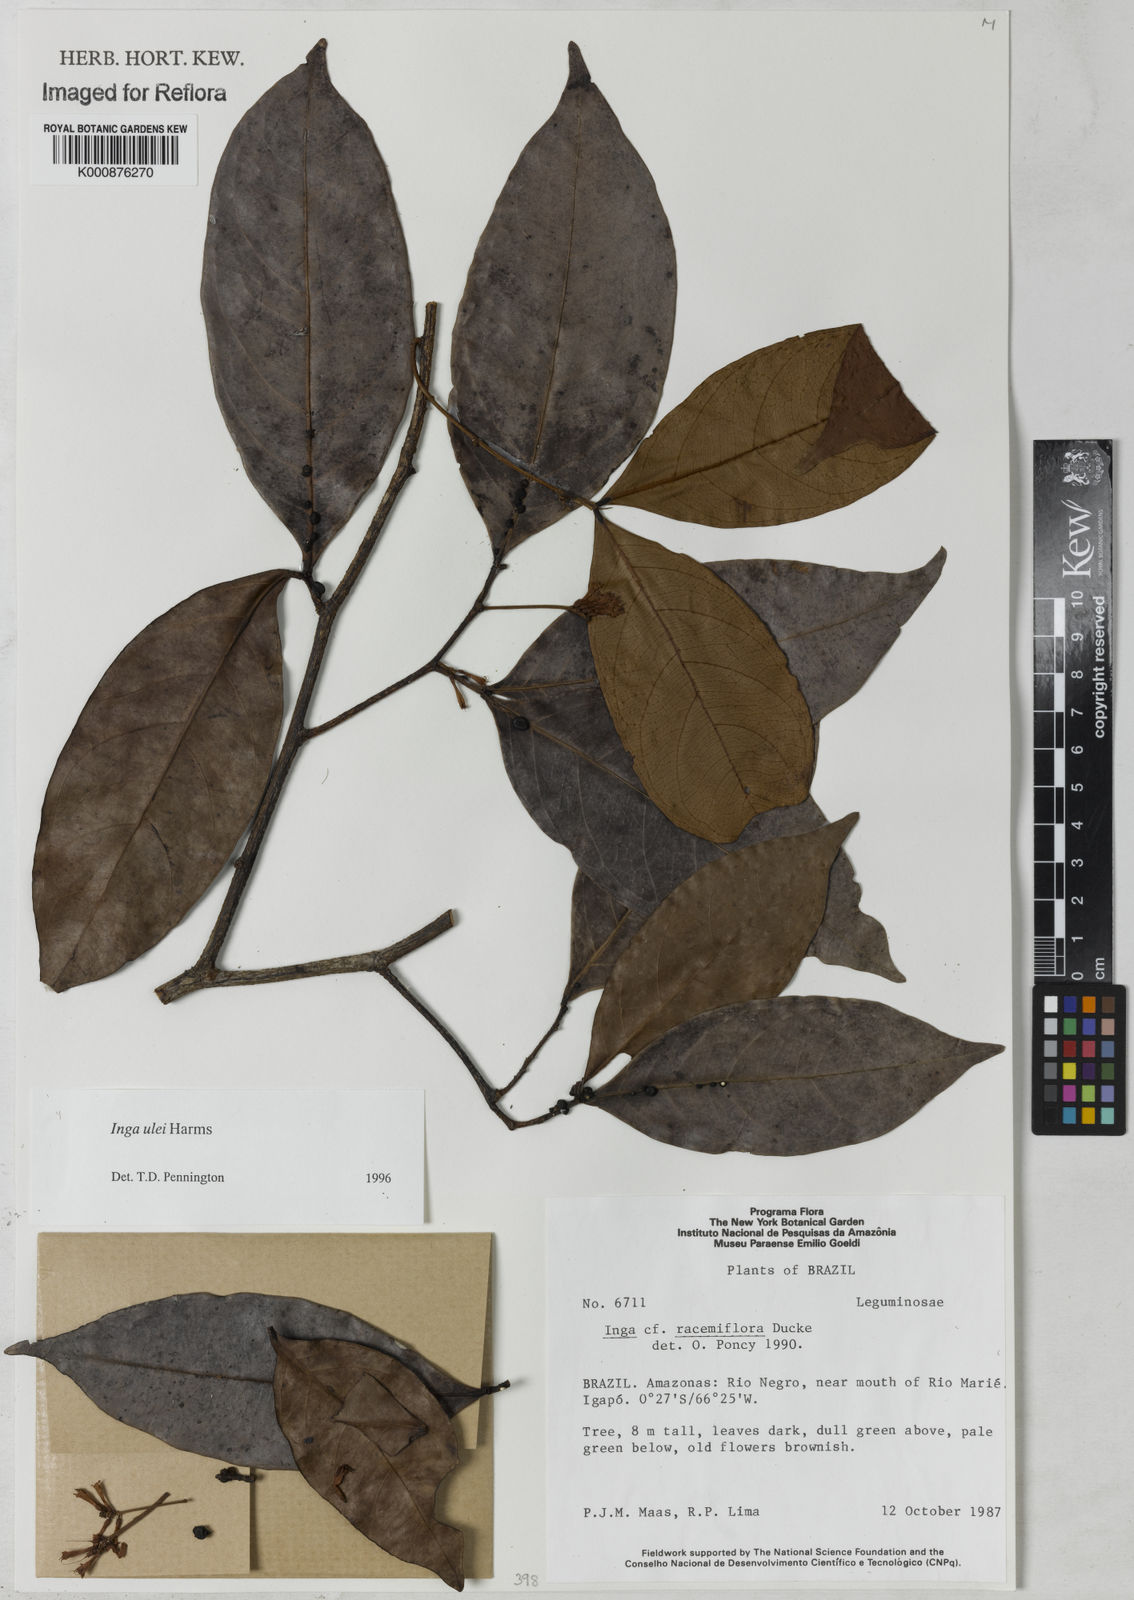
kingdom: Plantae
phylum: Tracheophyta
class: Magnoliopsida
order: Fabales
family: Fabaceae
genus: Inga
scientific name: Inga ulei
